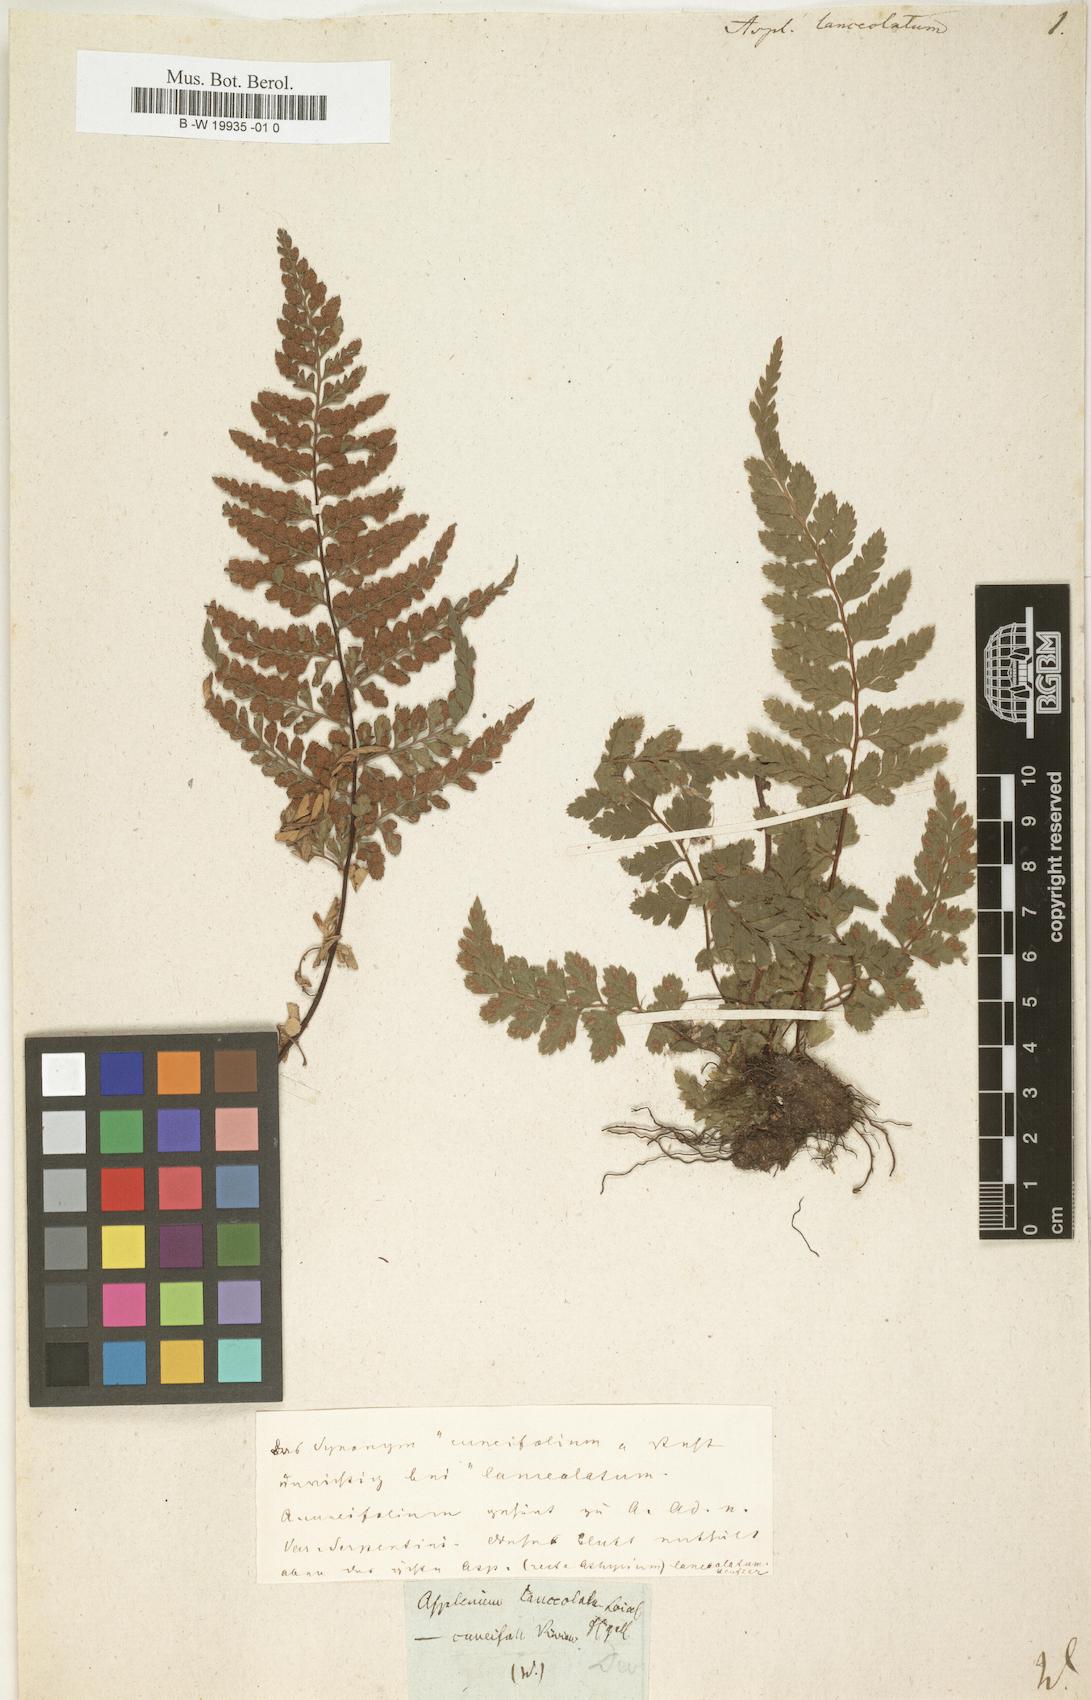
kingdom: Plantae
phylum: Tracheophyta
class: Polypodiopsida
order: Polypodiales
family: Aspleniaceae
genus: Asplenium
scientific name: Asplenium
